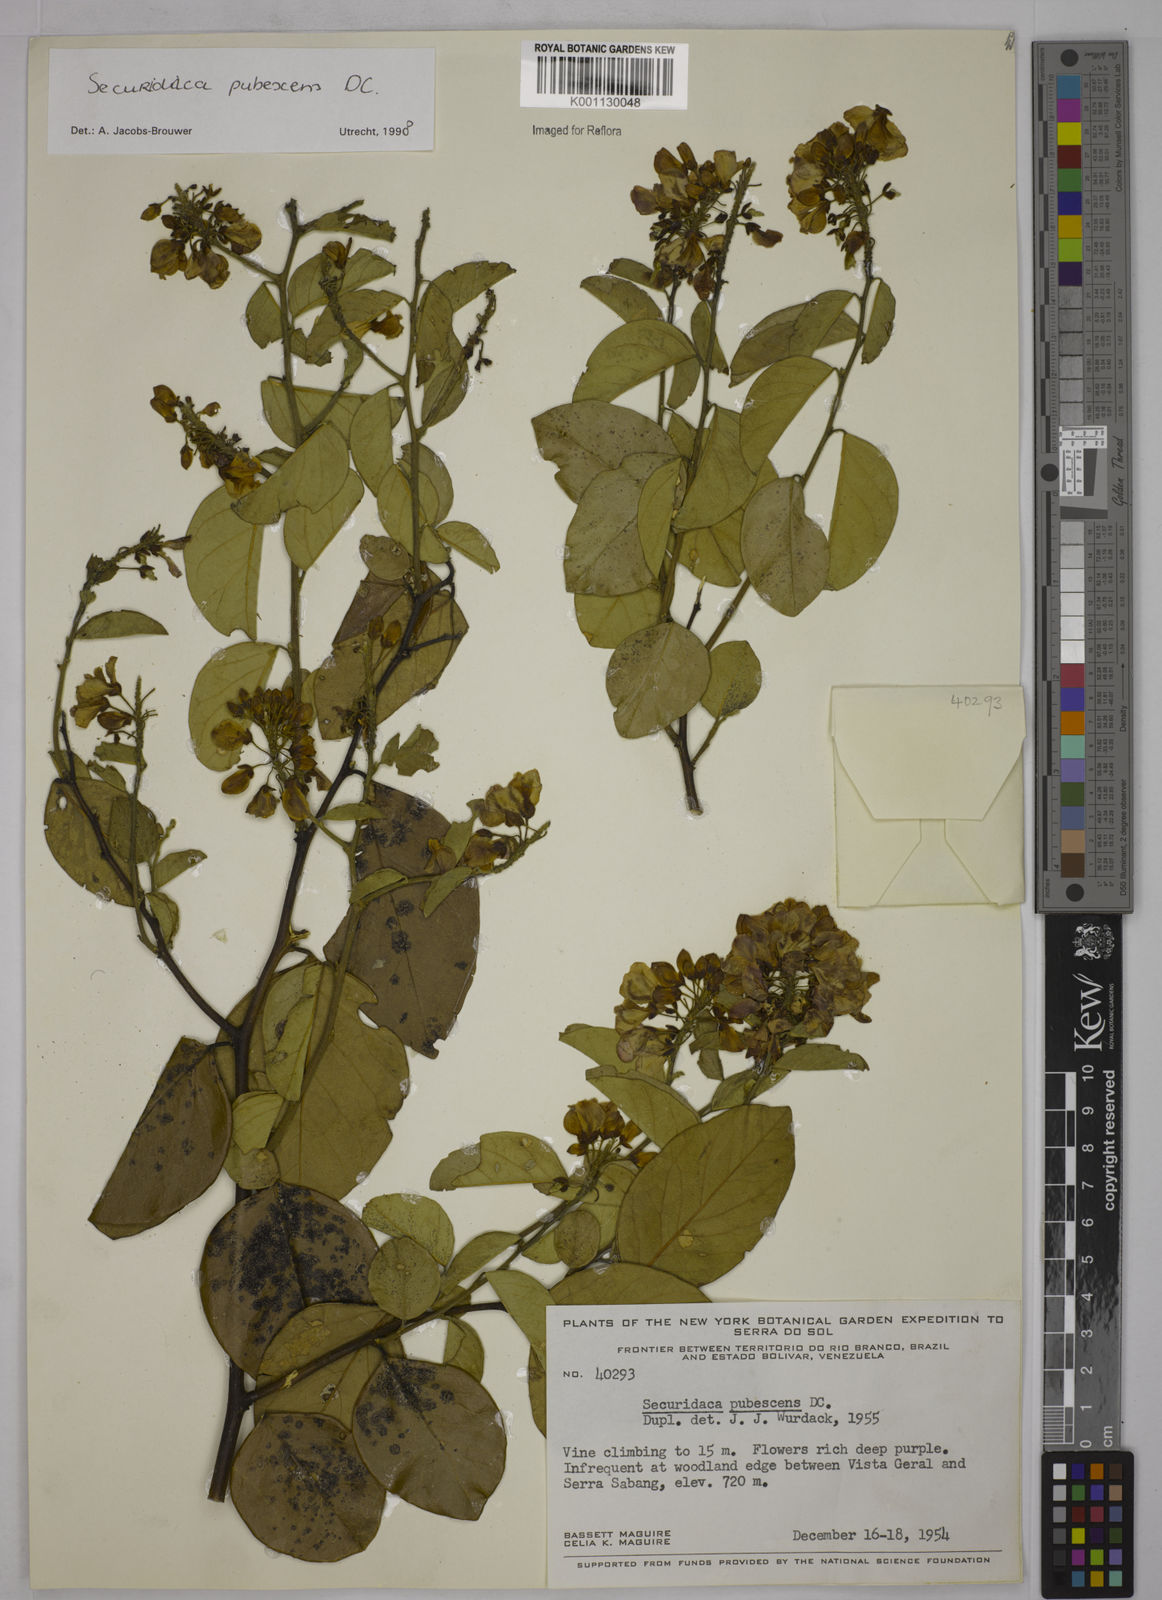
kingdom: Plantae
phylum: Tracheophyta
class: Magnoliopsida
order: Fabales
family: Polygalaceae
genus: Securidaca
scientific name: Securidaca pubescens
